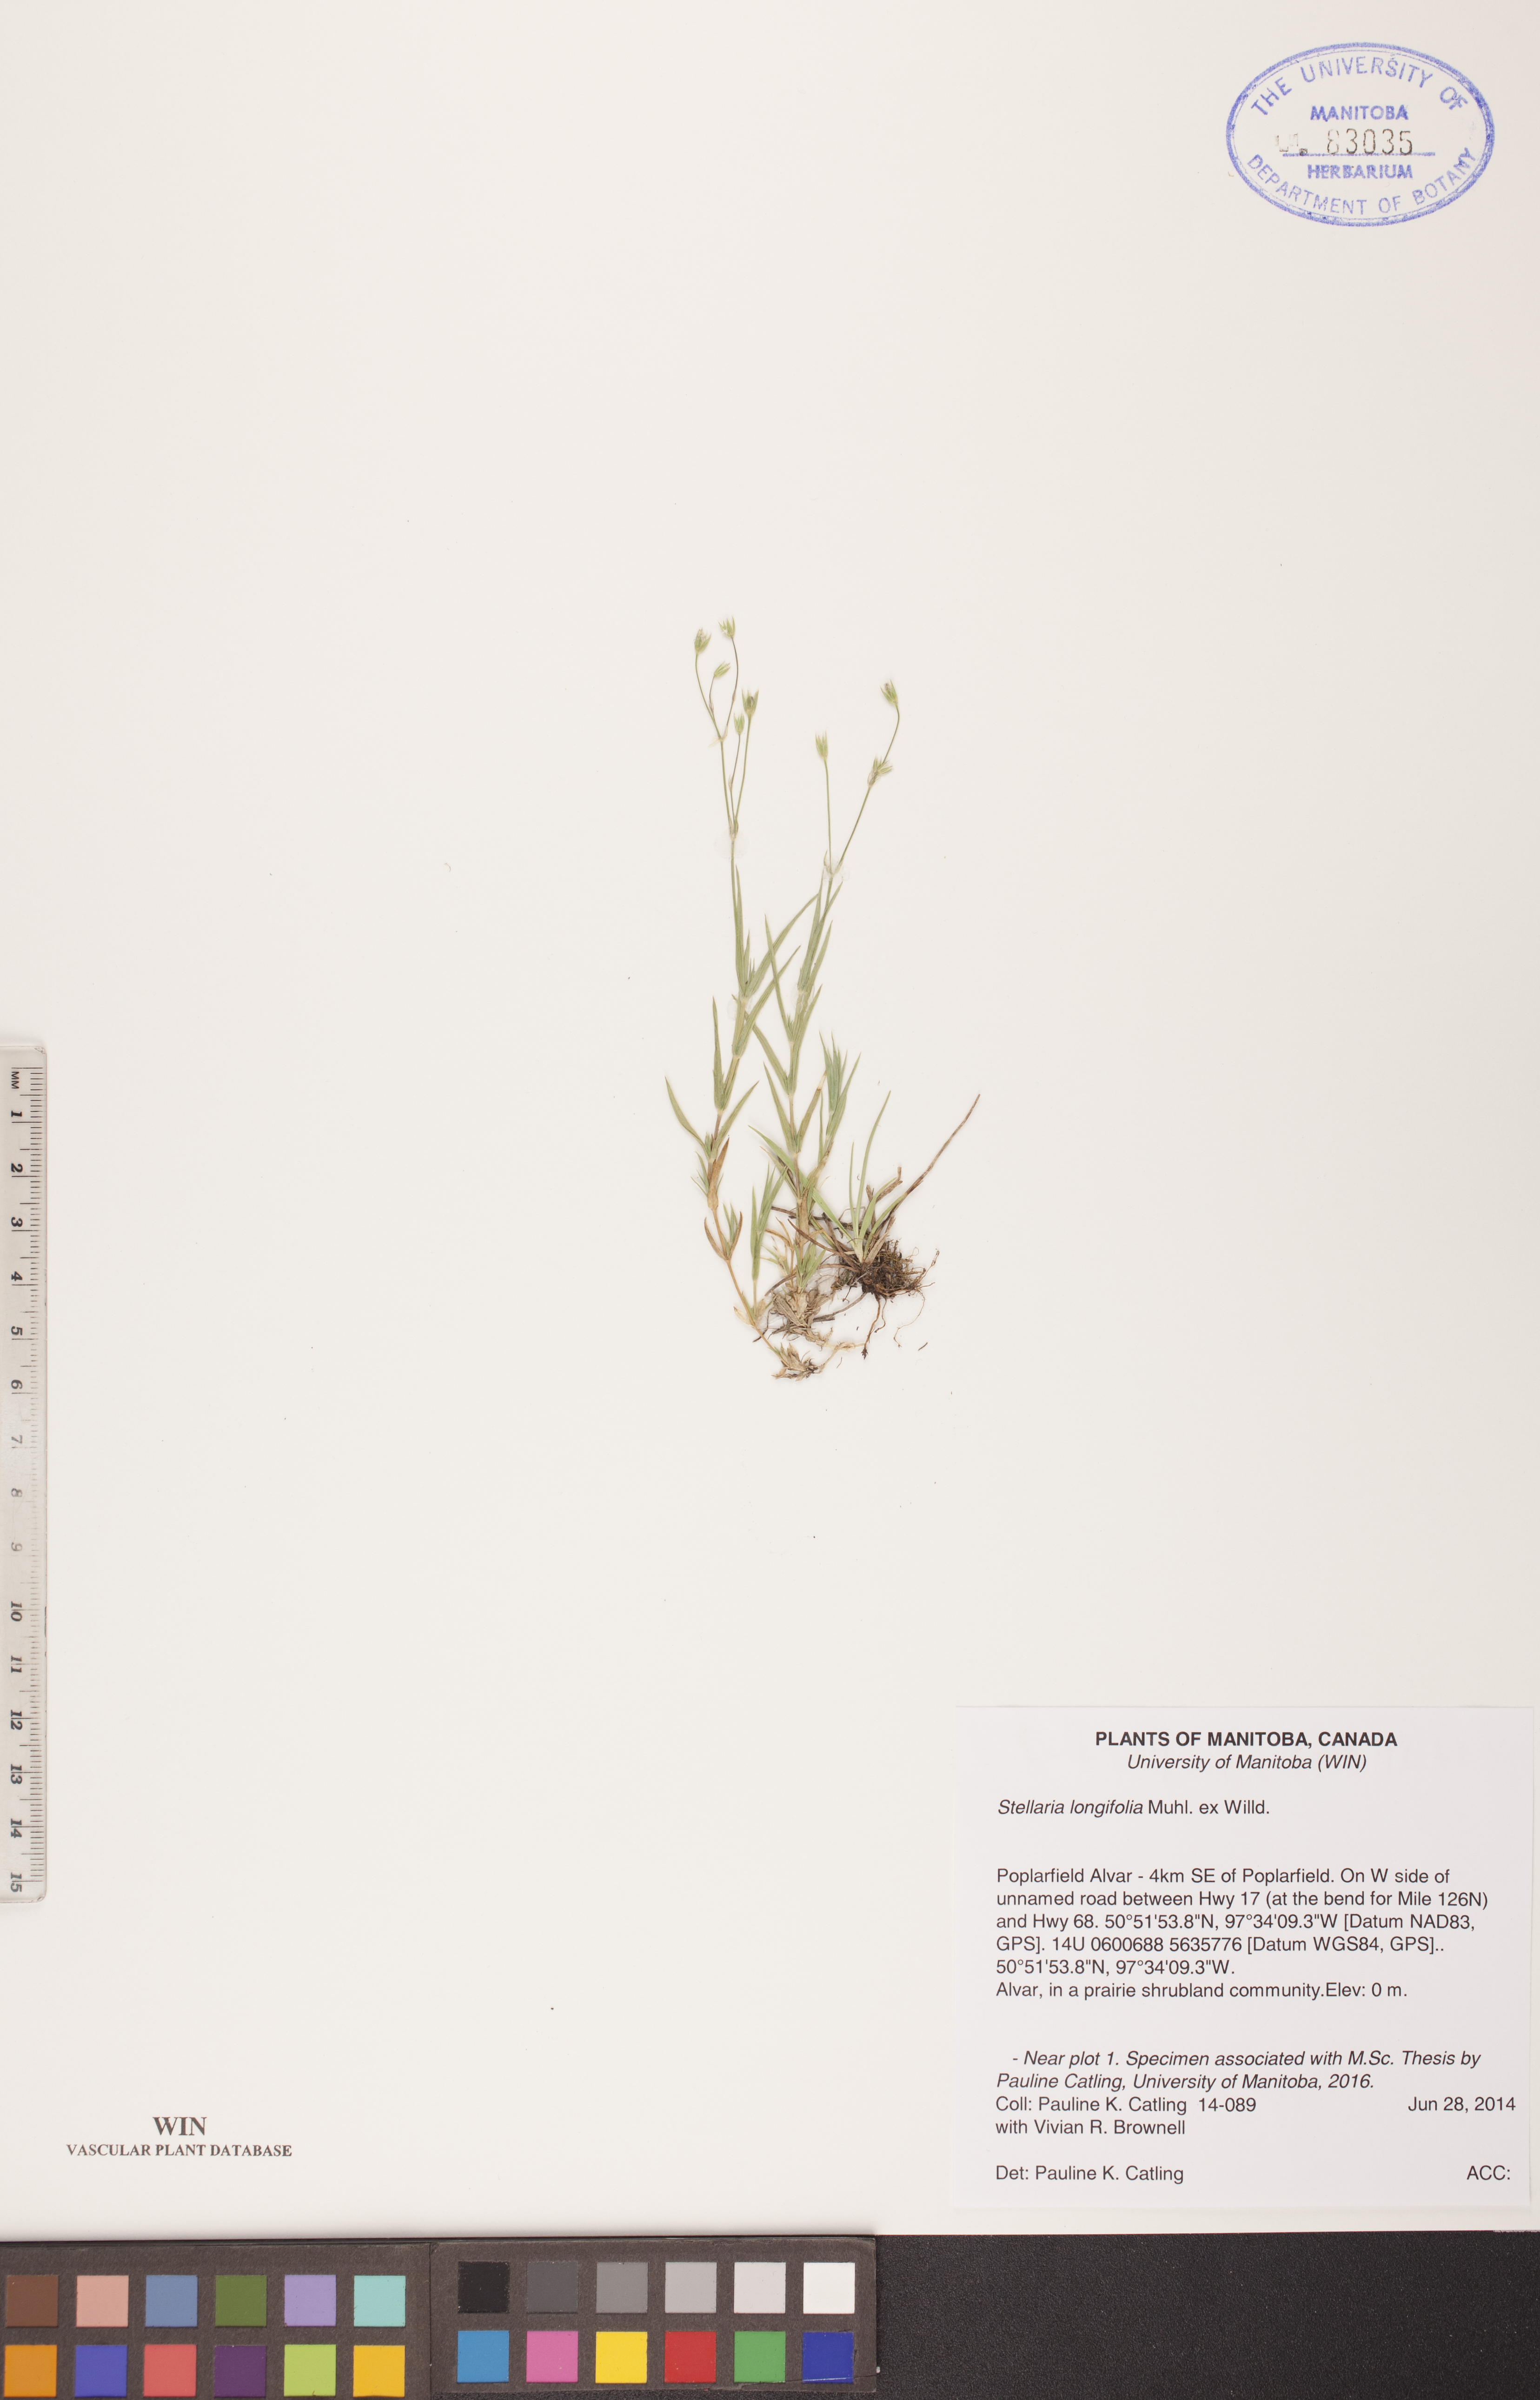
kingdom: Plantae
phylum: Tracheophyta
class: Magnoliopsida
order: Caryophyllales
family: Caryophyllaceae
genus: Stellaria
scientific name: Stellaria longifolia
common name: Long-leaved chickweed
